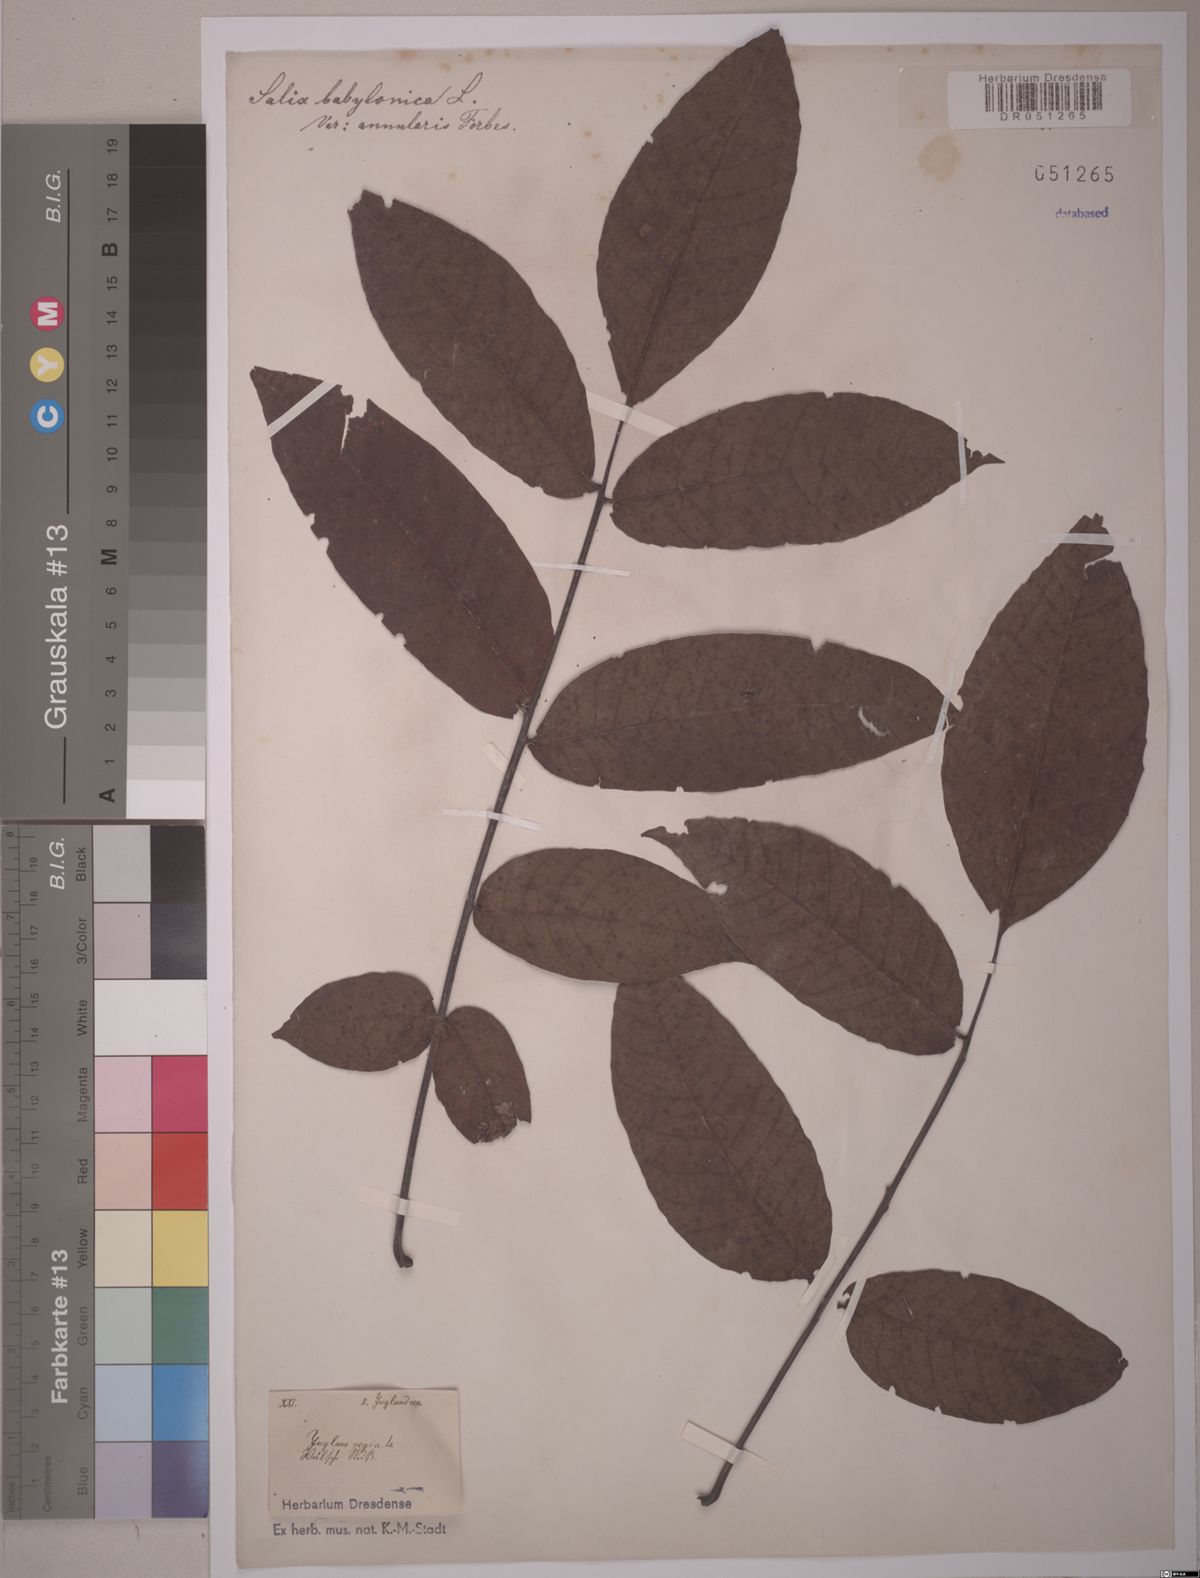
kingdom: Plantae
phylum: Tracheophyta
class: Magnoliopsida
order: Fagales
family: Juglandaceae
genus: Juglans
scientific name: Juglans regia
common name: Walnut
